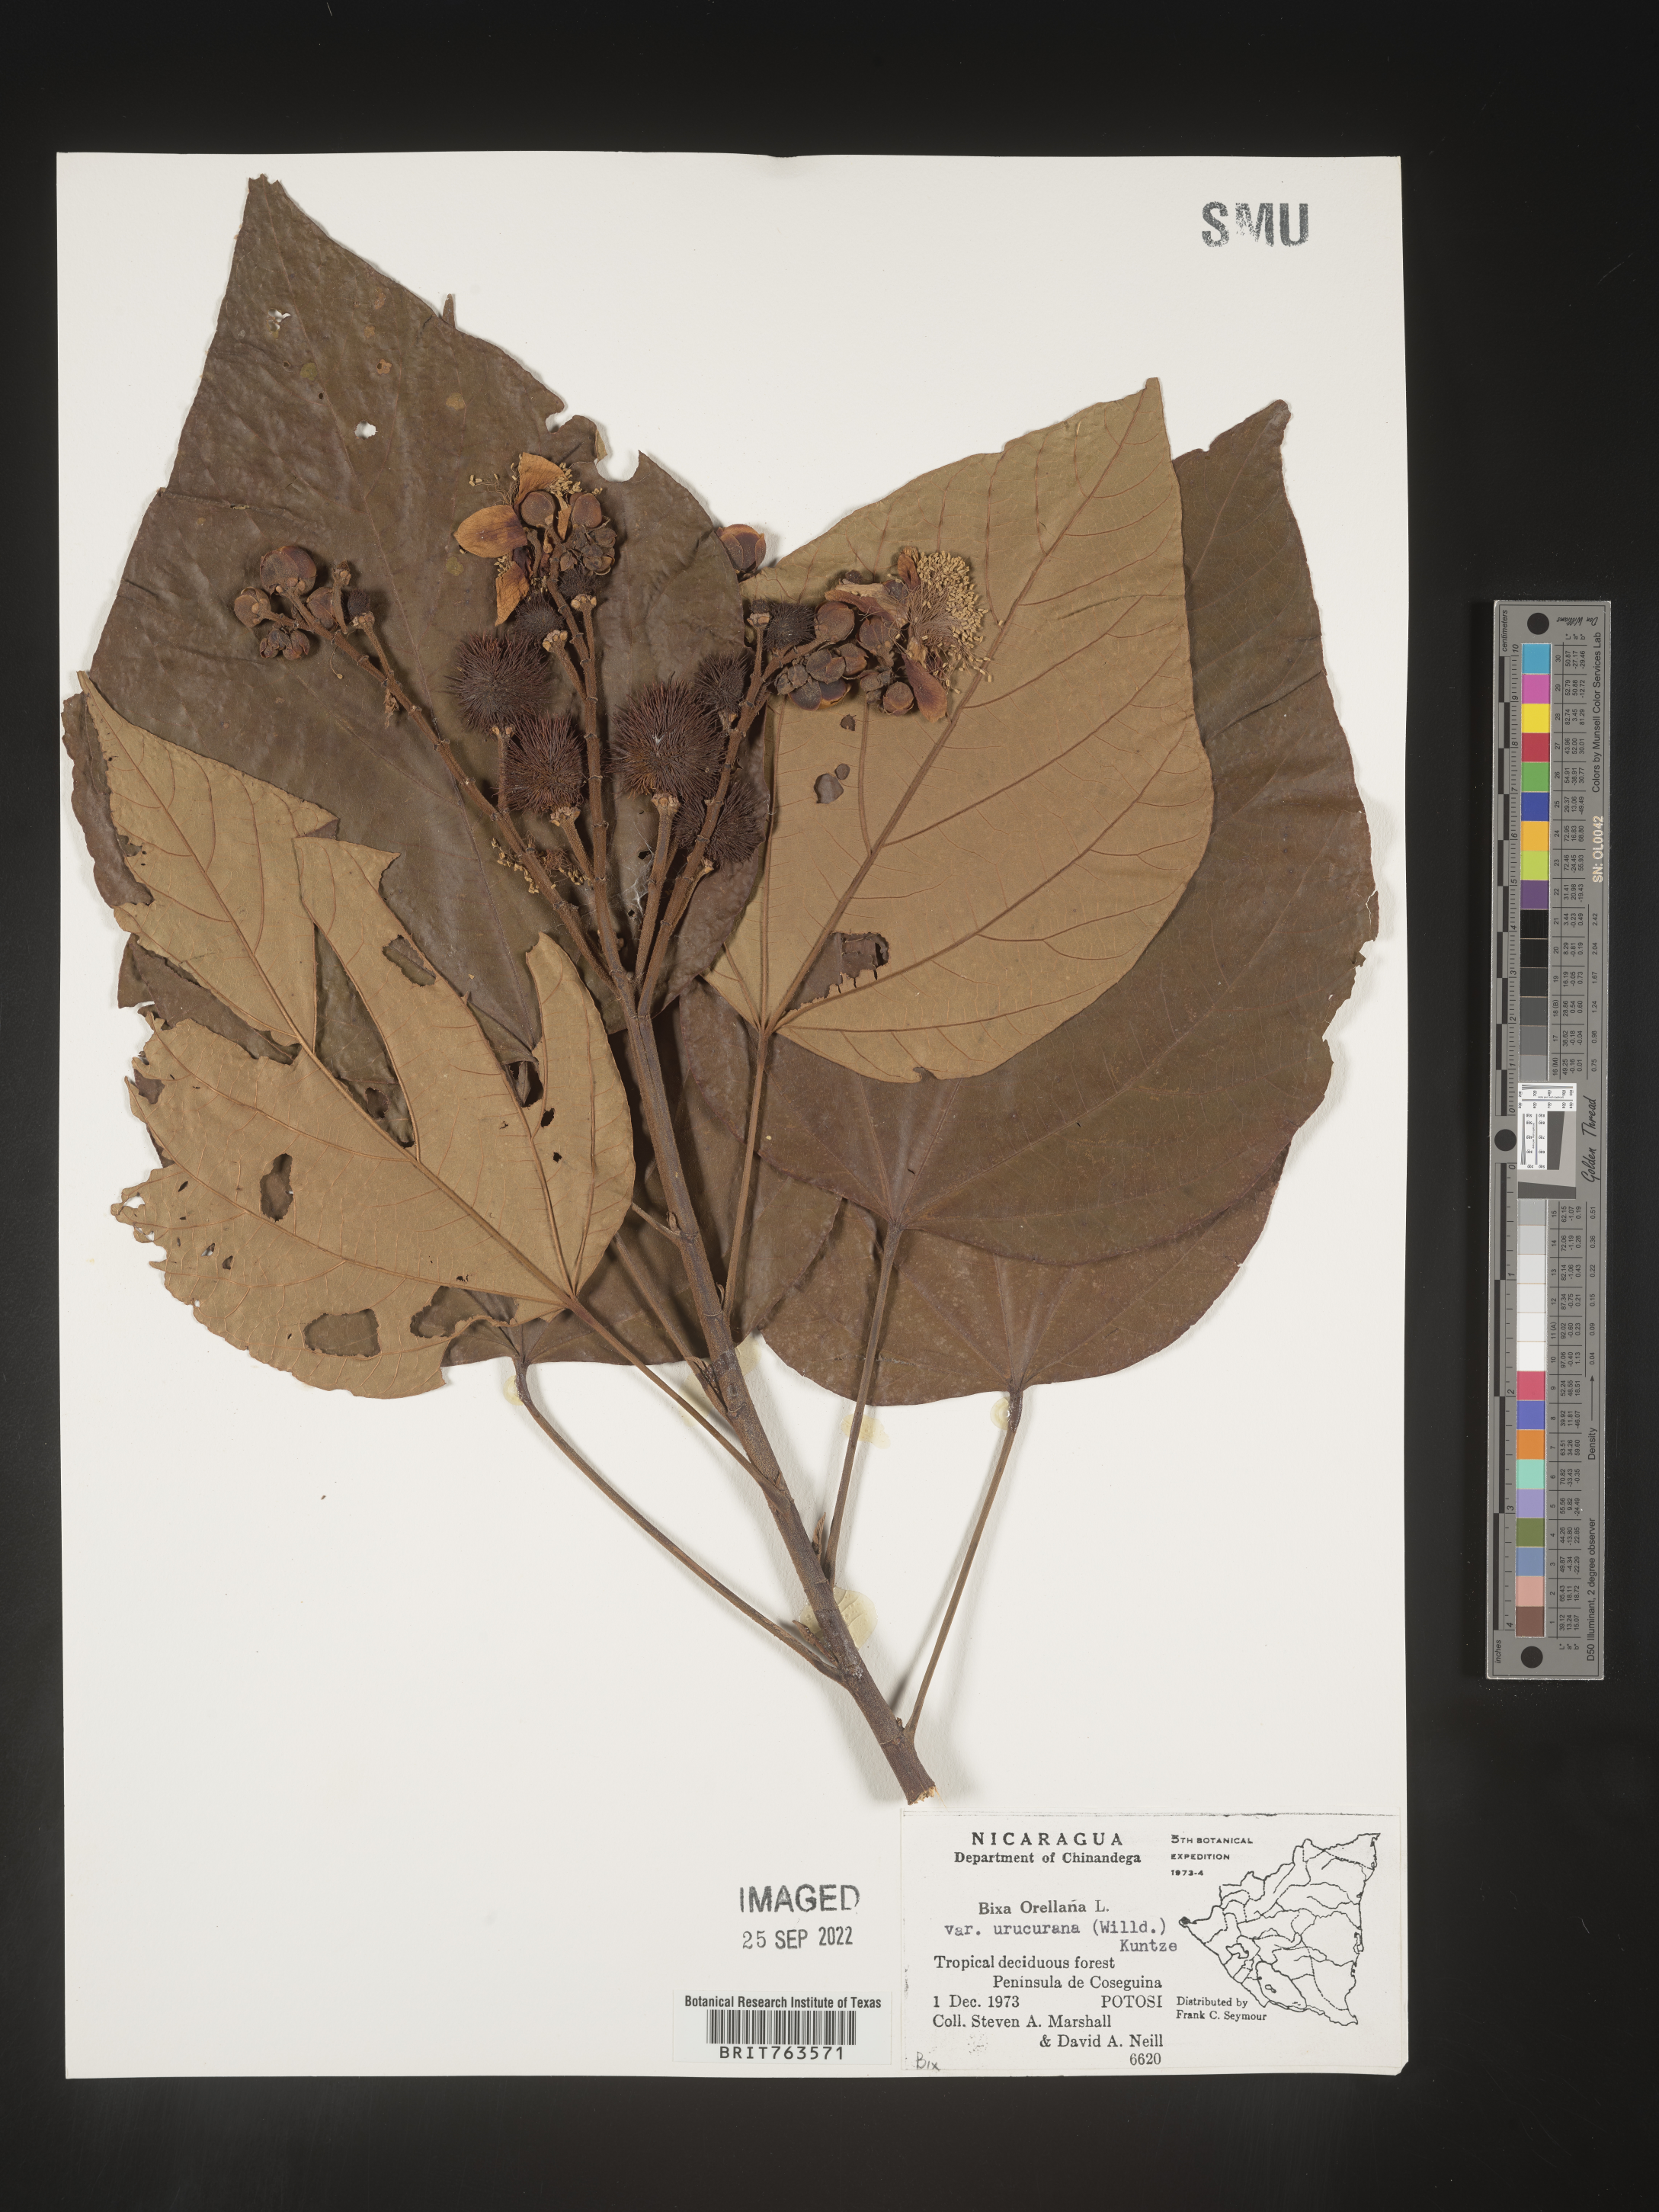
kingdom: Plantae
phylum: Tracheophyta
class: Magnoliopsida
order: Malvales
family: Bixaceae
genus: Bixa
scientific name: Bixa
